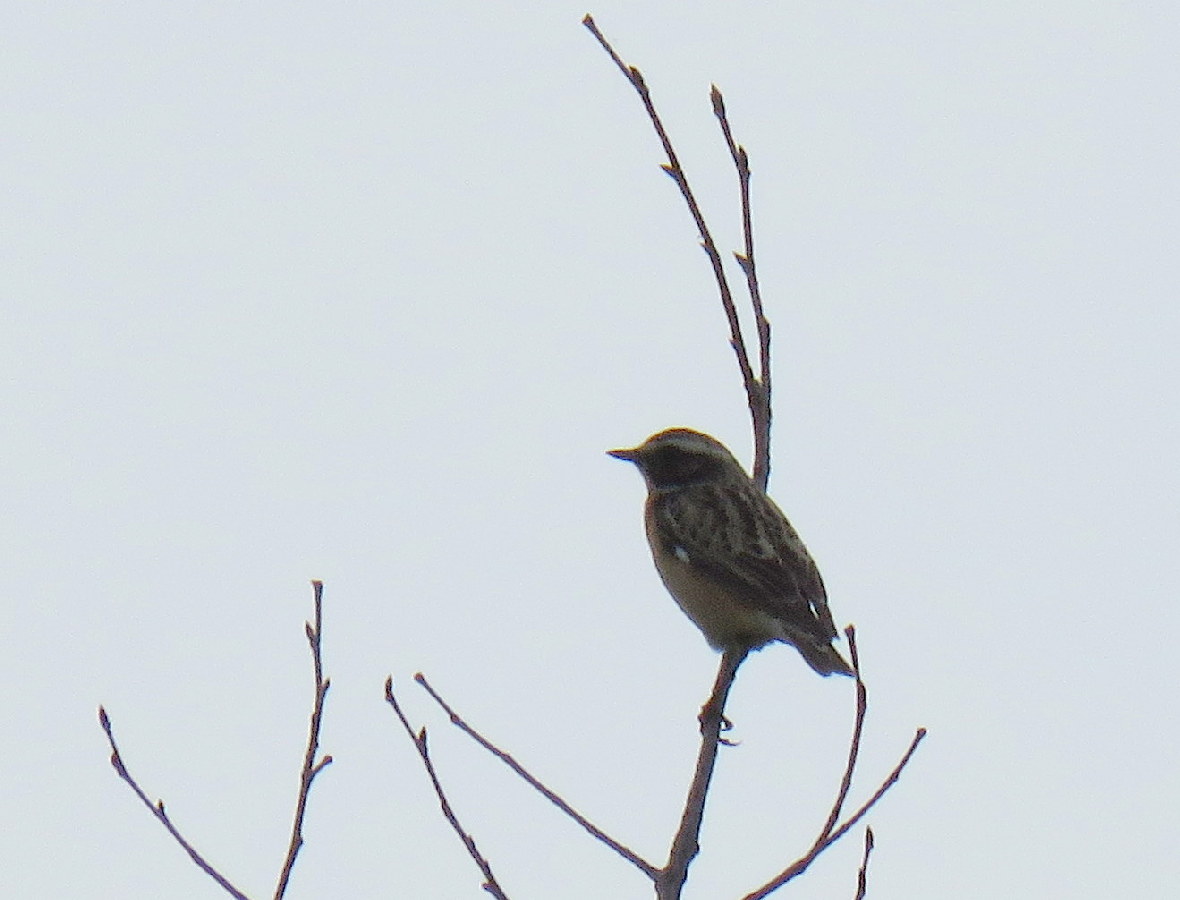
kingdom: Animalia
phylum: Chordata
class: Aves
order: Passeriformes
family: Muscicapidae
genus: Saxicola
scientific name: Saxicola rubetra
